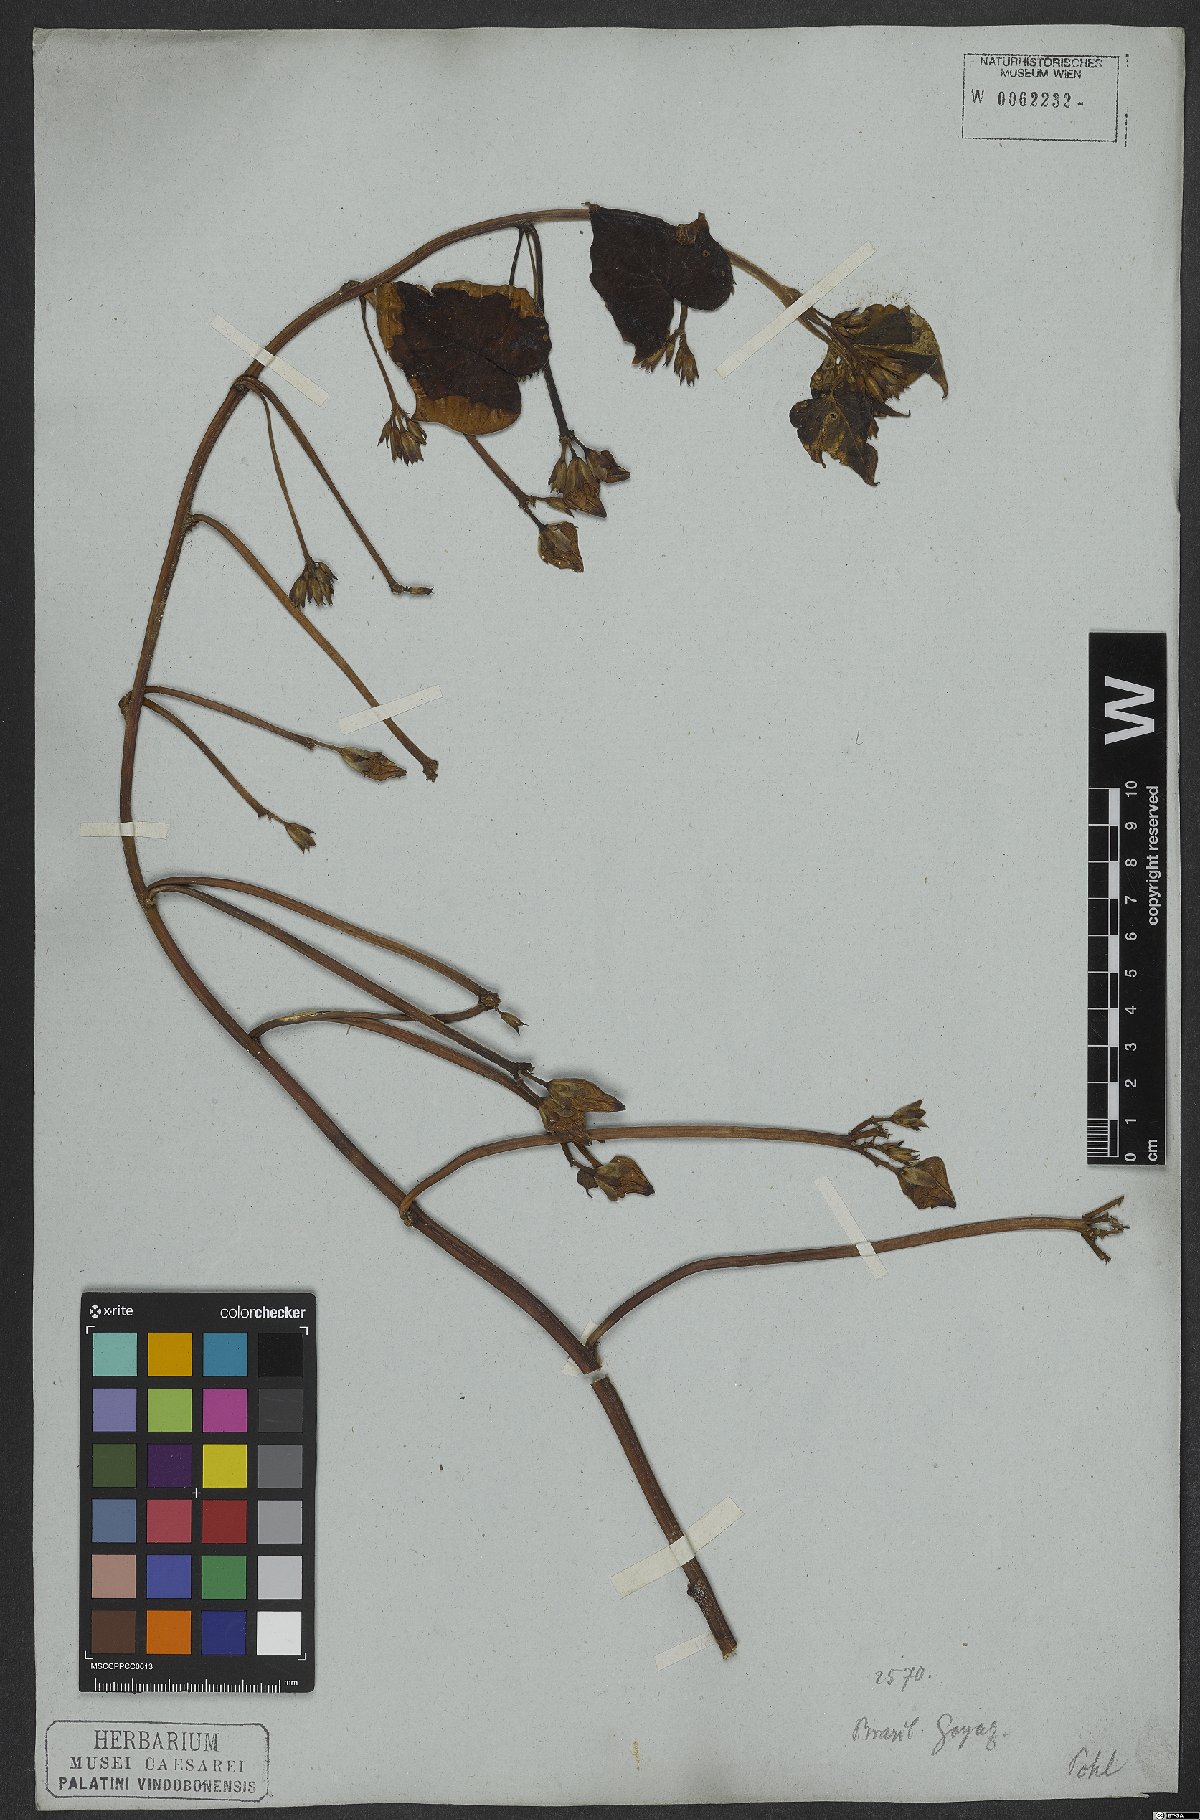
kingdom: Plantae
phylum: Tracheophyta
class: Magnoliopsida
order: Solanales
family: Convolvulaceae
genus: Ipomoea
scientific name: Ipomoea batatas
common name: Sweet-potato
